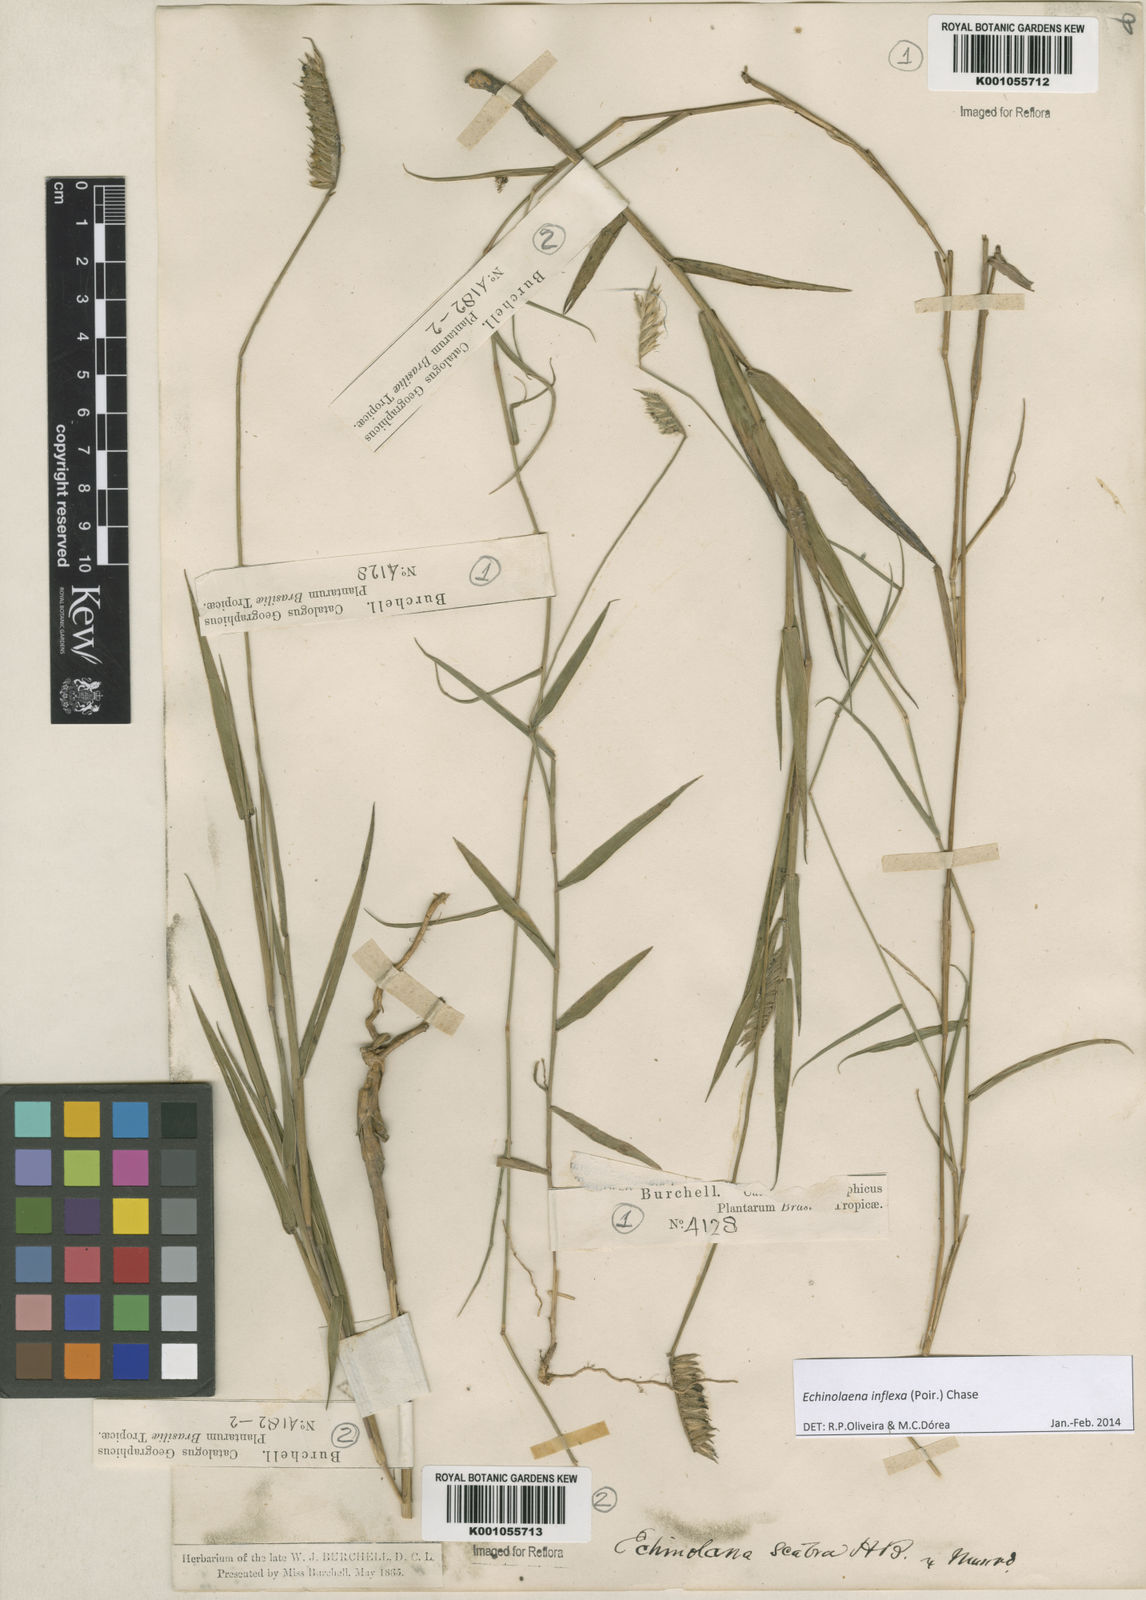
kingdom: Plantae
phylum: Tracheophyta
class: Liliopsida
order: Poales
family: Poaceae
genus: Echinolaena
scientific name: Echinolaena inflexa
